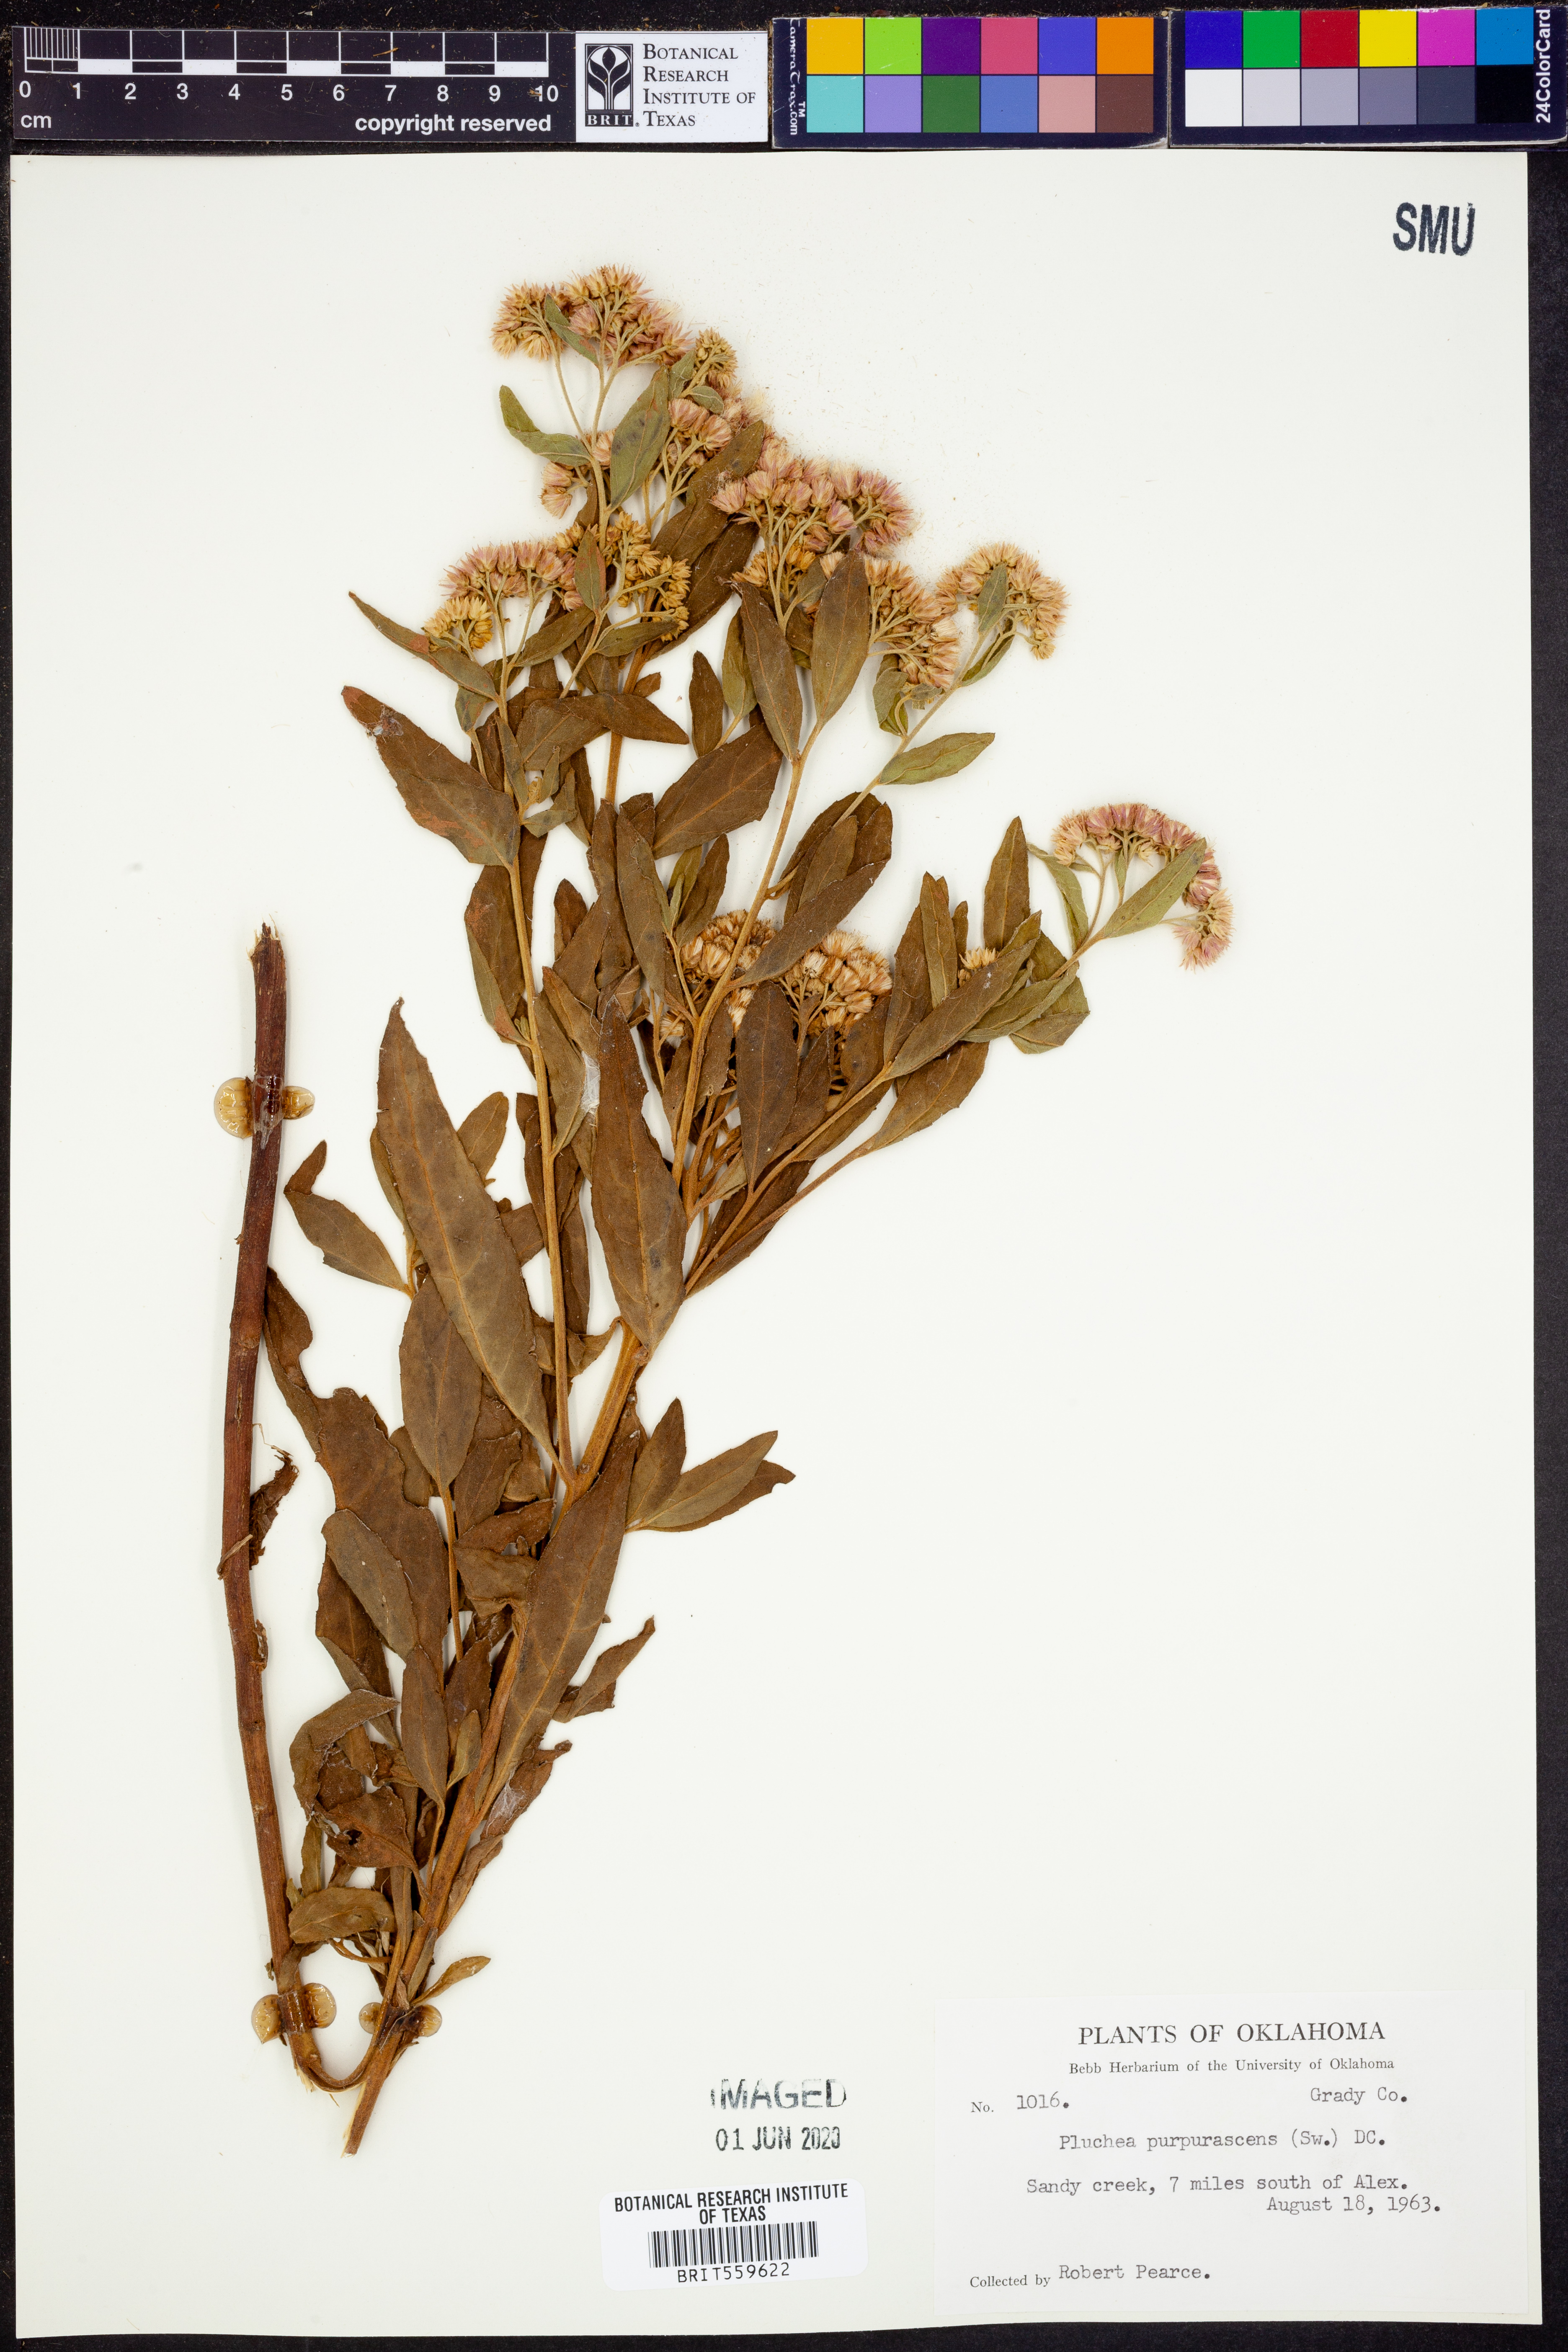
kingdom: Plantae
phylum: Tracheophyta
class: Magnoliopsida
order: Asterales
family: Asteraceae
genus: Pluchea
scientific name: Pluchea odorata
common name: Saltmarsh fleabane
